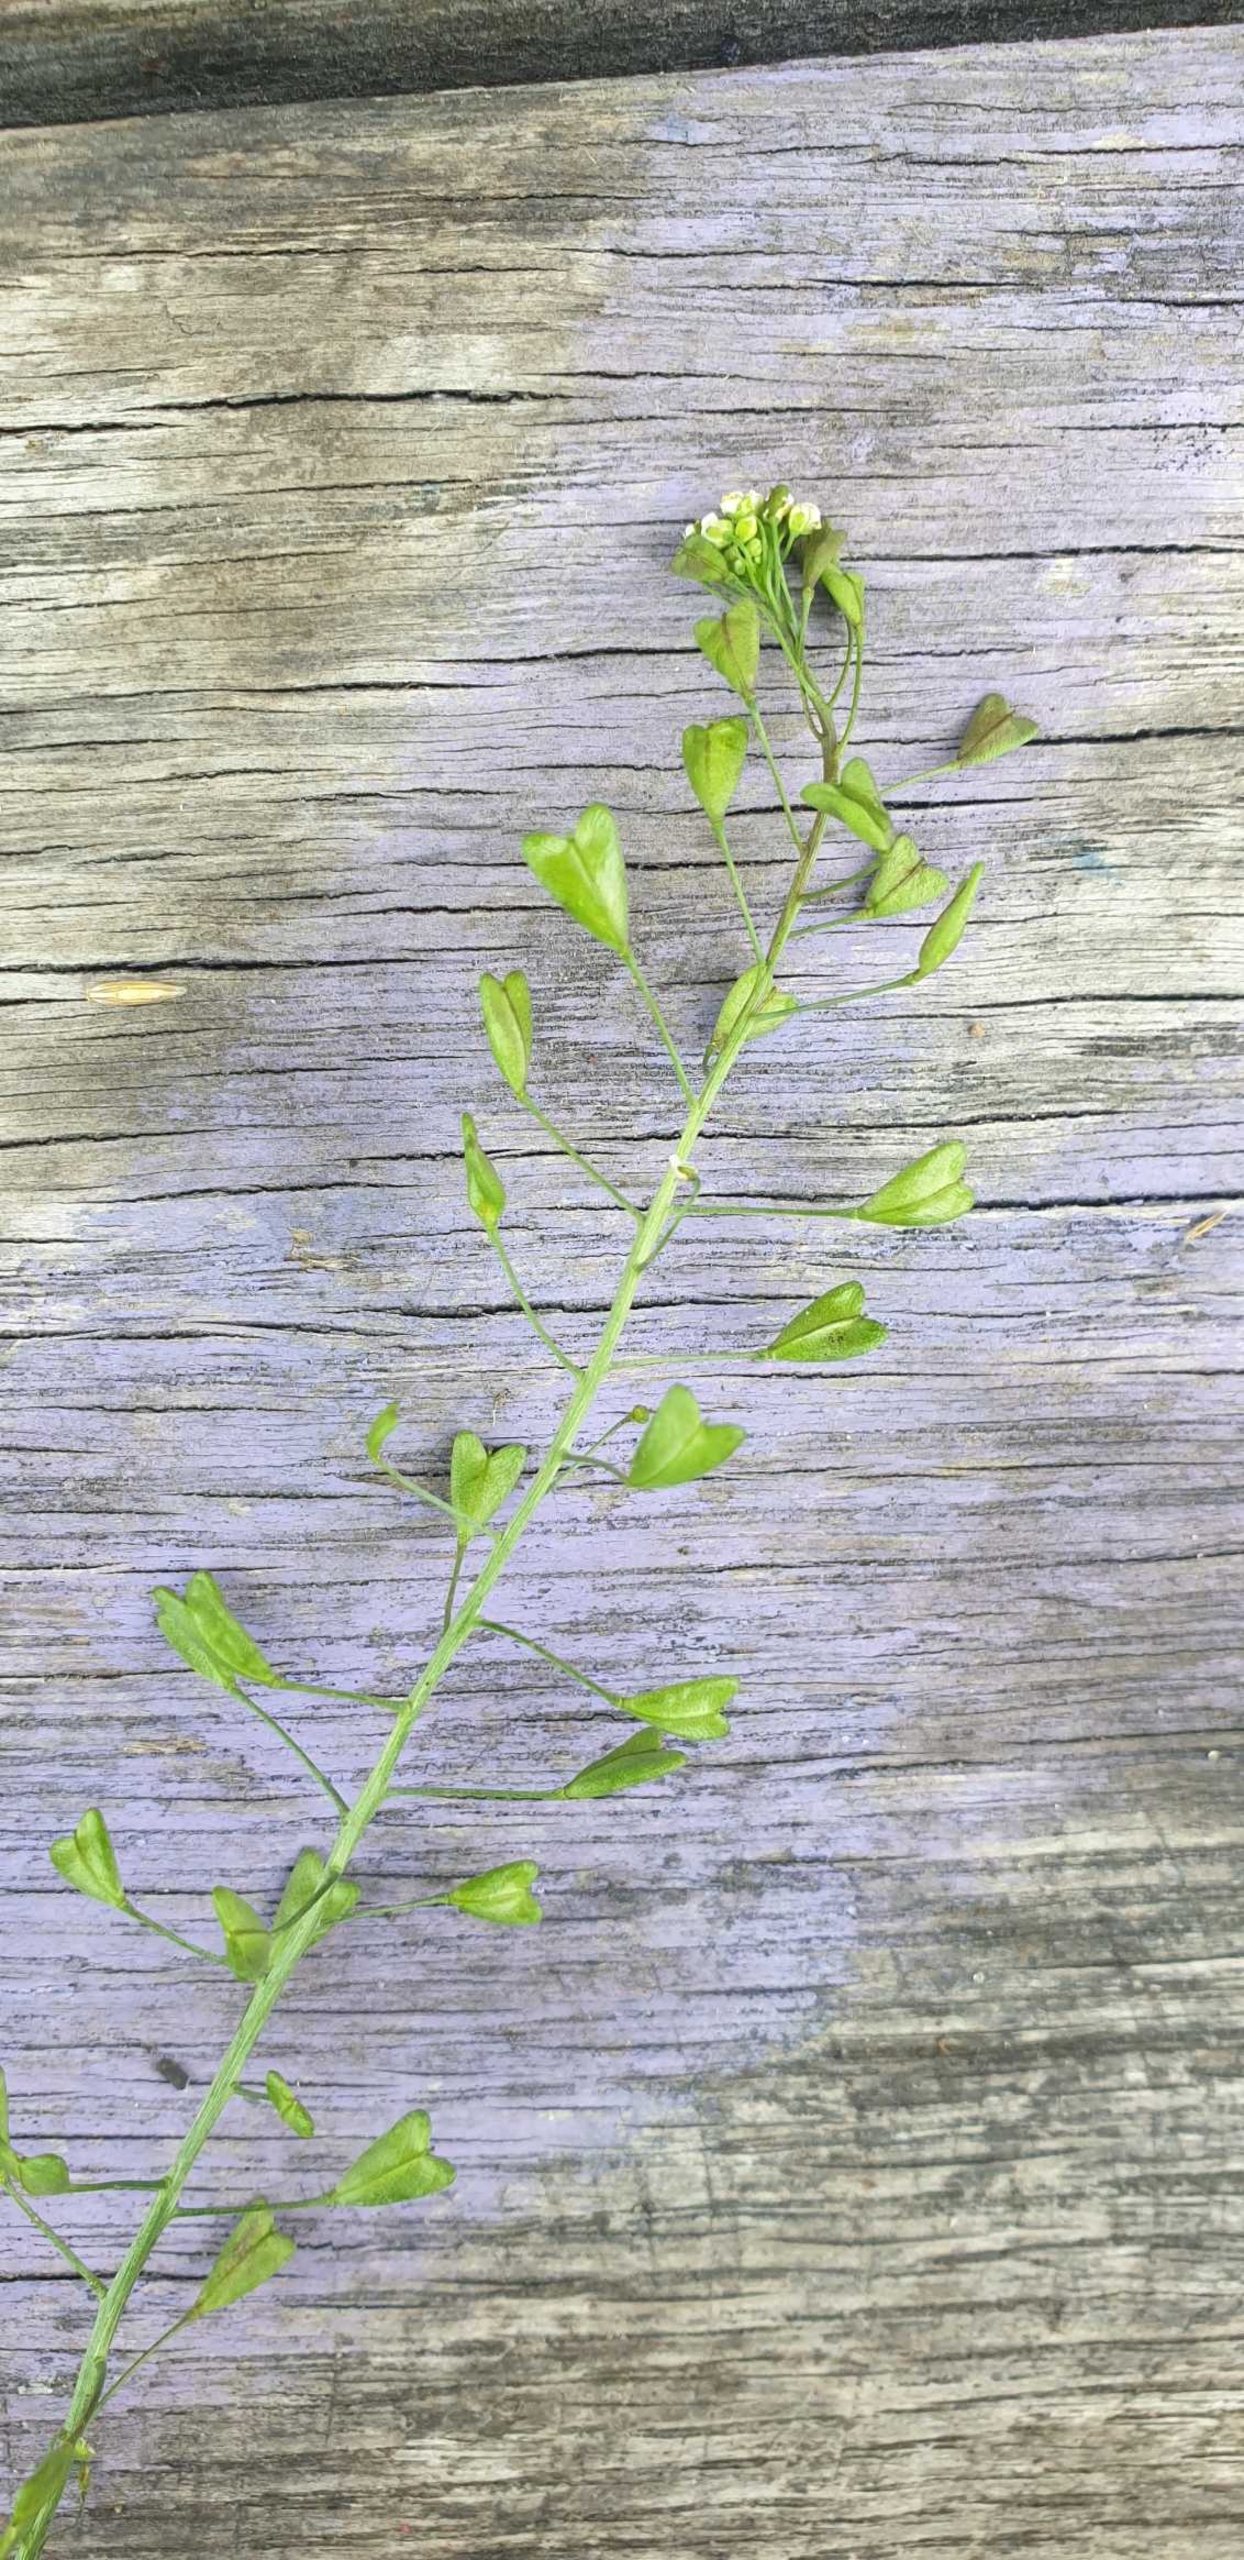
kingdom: Plantae
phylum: Tracheophyta
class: Magnoliopsida
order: Brassicales
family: Brassicaceae
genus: Capsella
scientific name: Capsella bursa-pastoris
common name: Hyrdetaske
